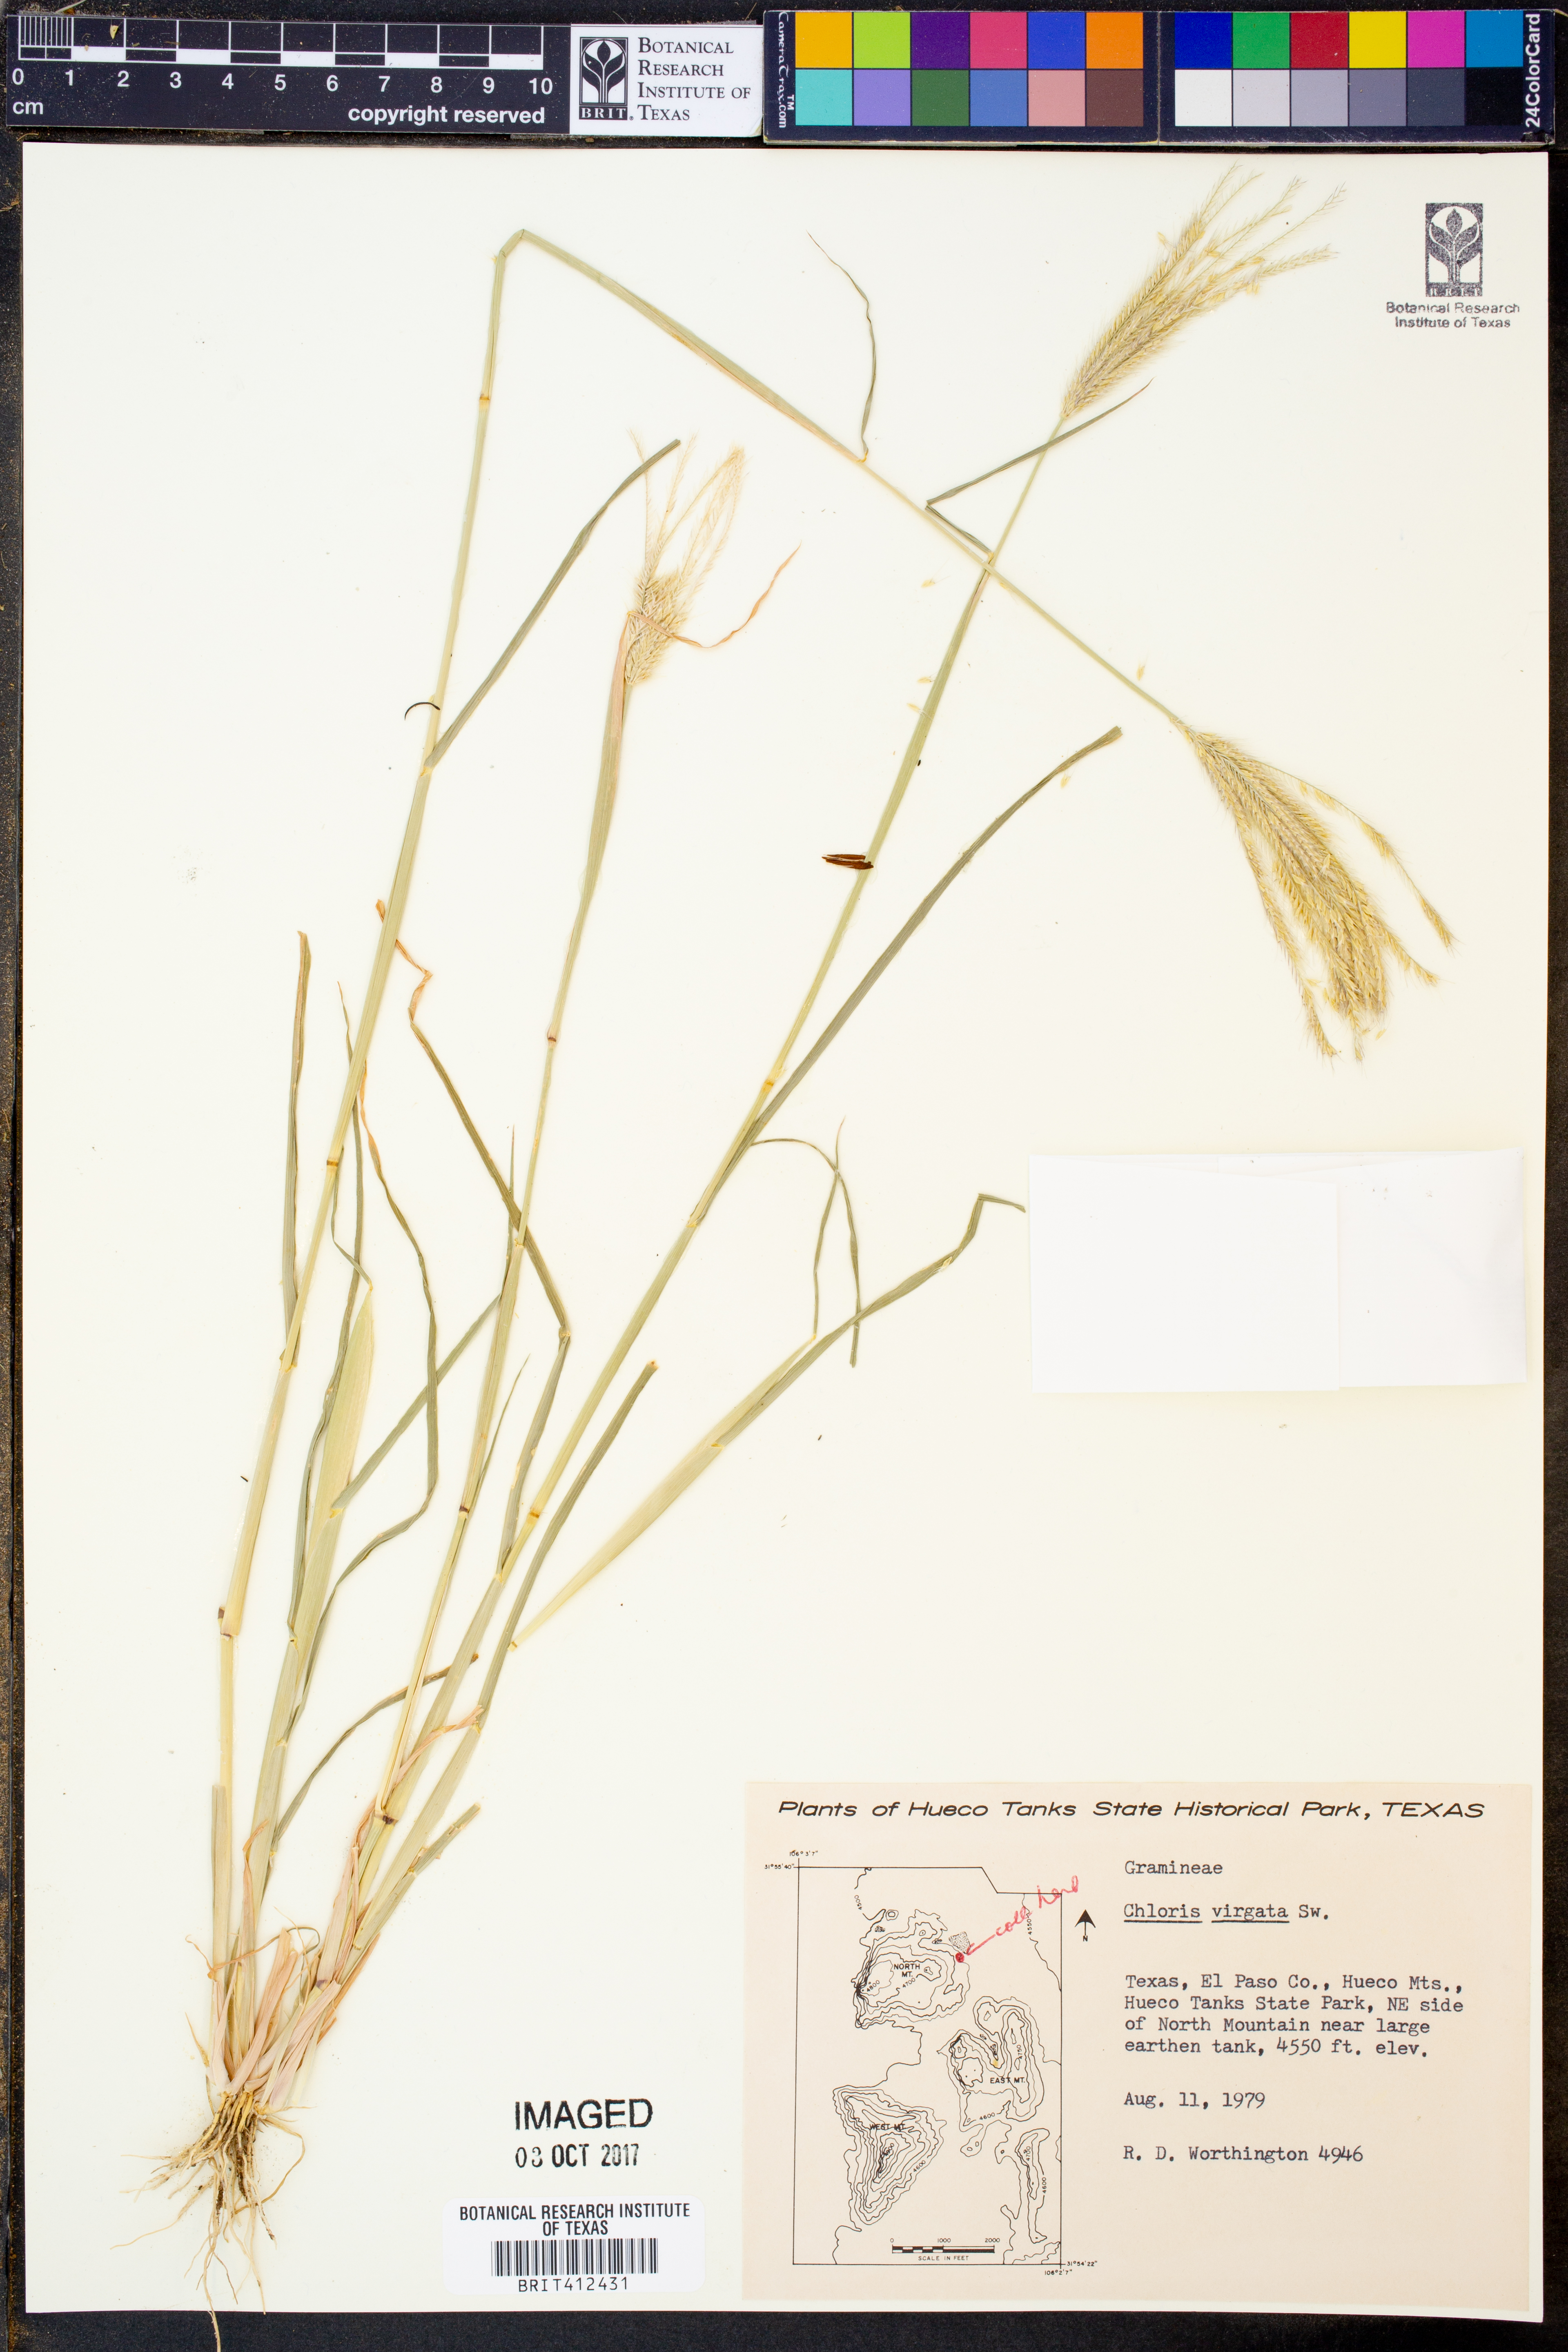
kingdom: Plantae
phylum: Tracheophyta
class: Liliopsida
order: Poales
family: Poaceae
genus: Chloris
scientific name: Chloris virgata
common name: Feathery rhodes-grass
